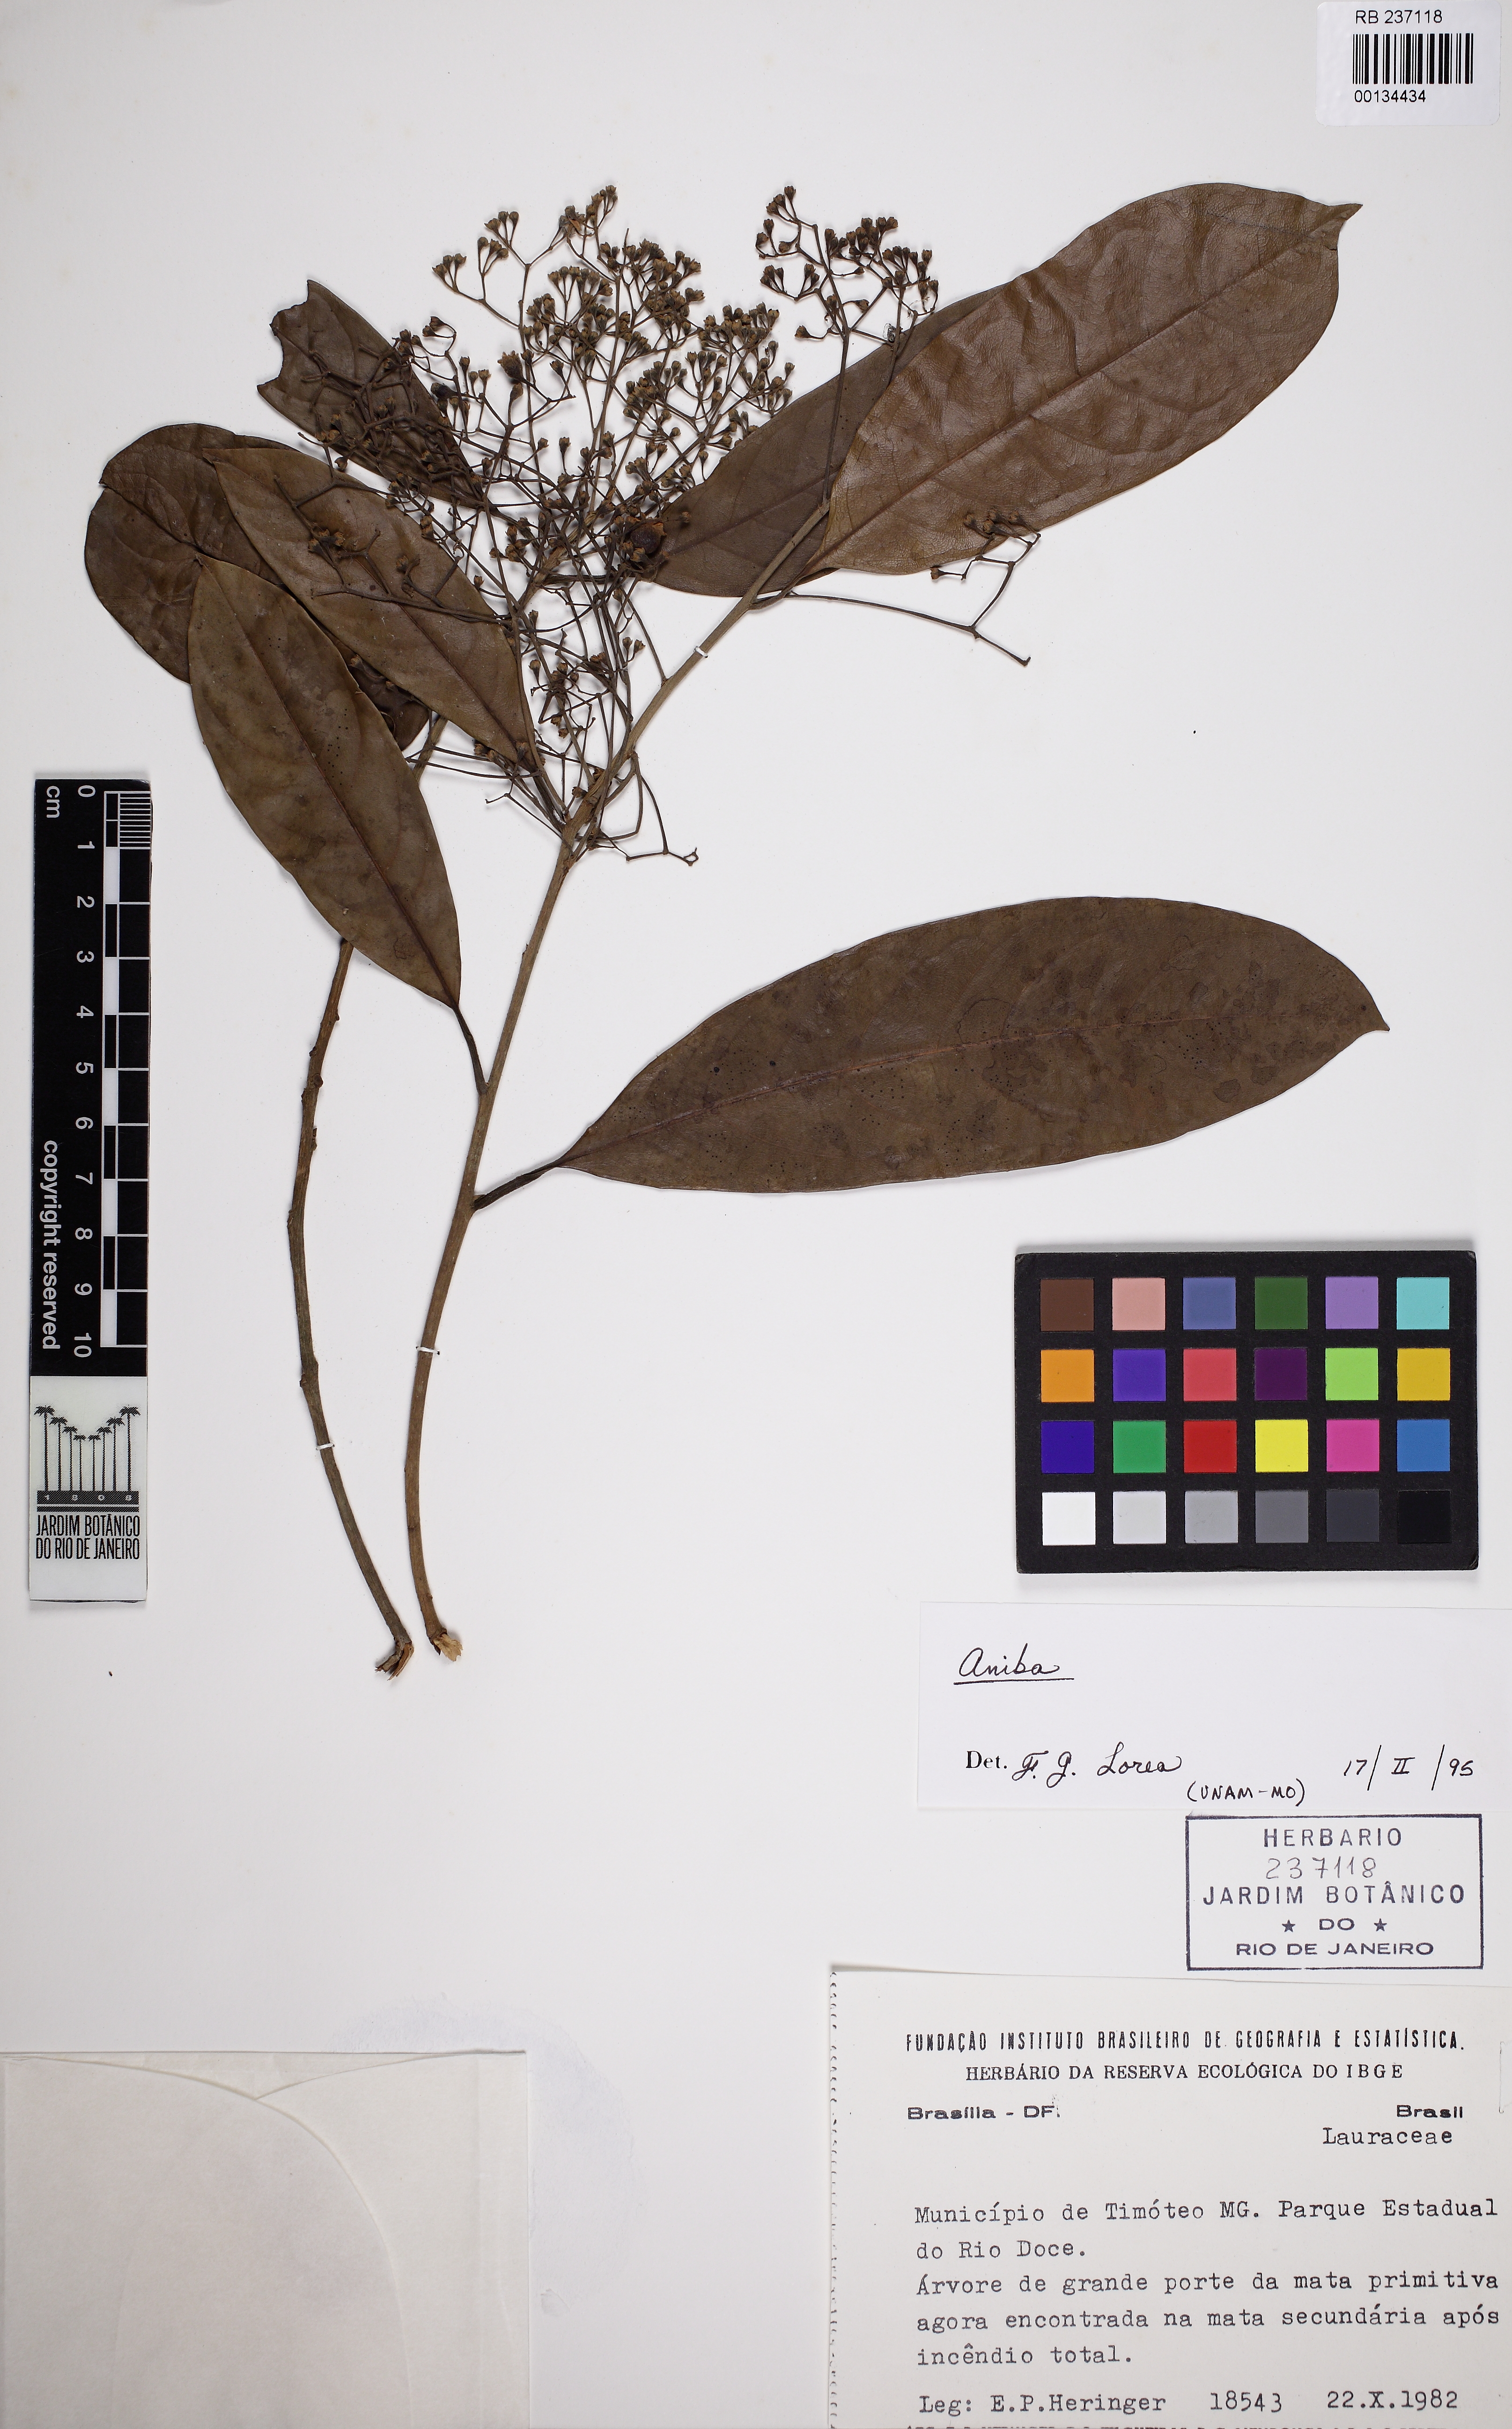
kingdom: Plantae
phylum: Tracheophyta
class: Magnoliopsida
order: Laurales
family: Lauraceae
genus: Aniba
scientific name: Aniba
